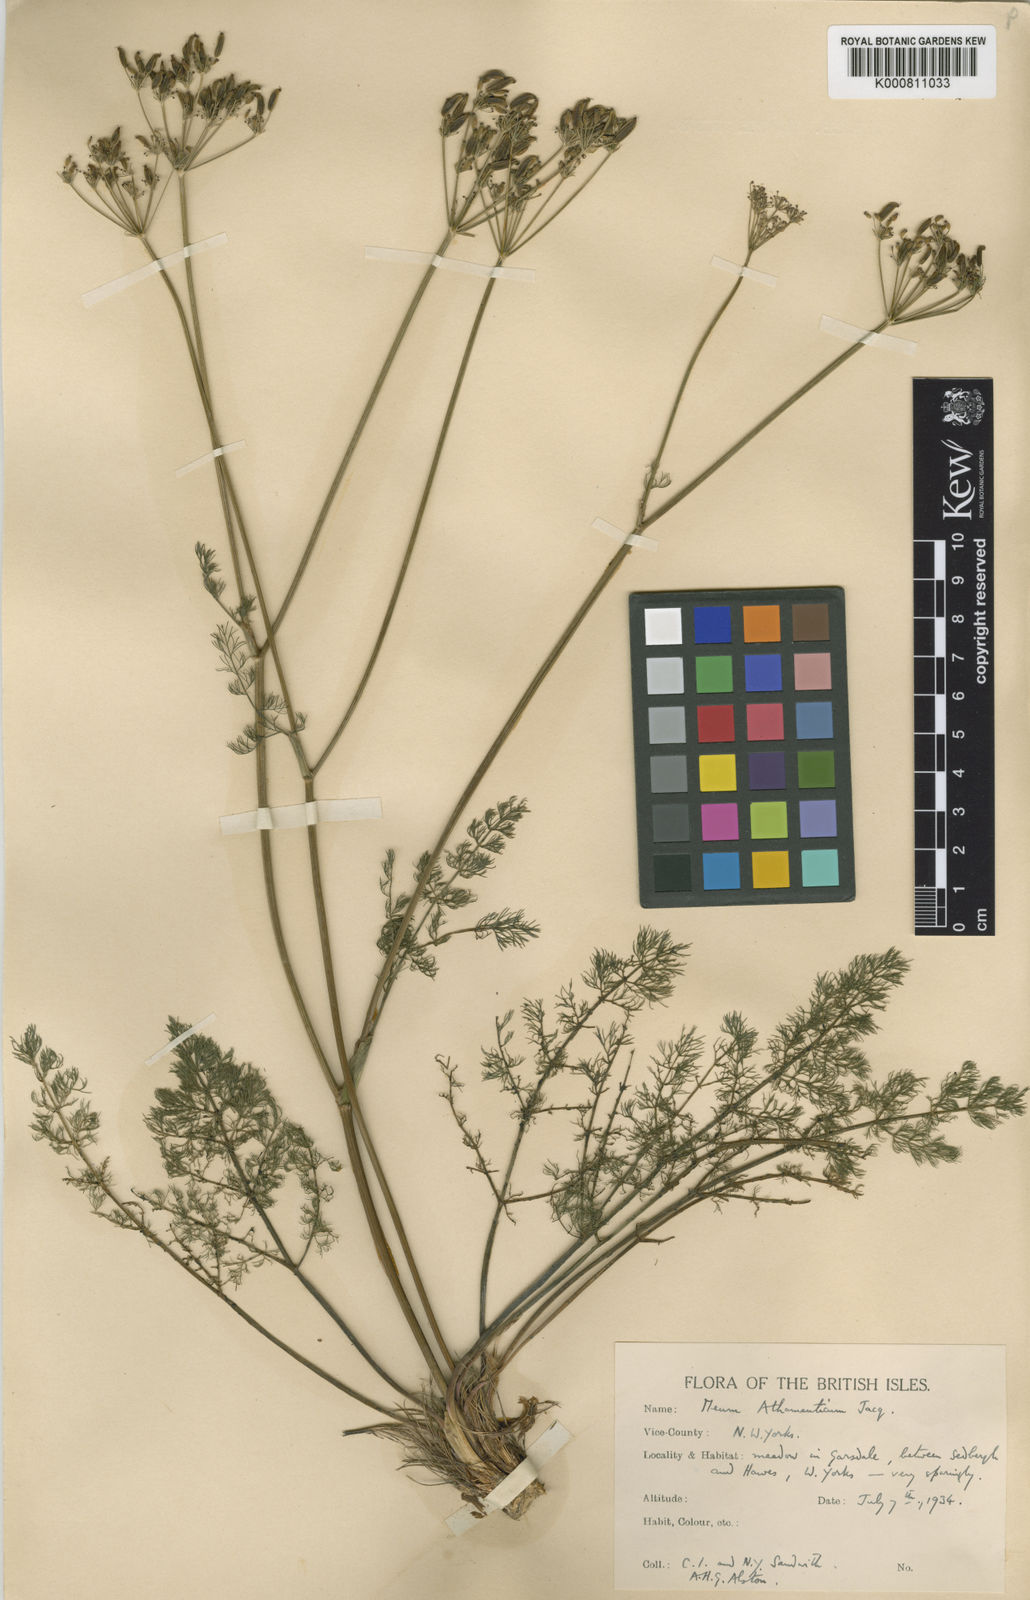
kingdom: Plantae
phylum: Tracheophyta
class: Magnoliopsida
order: Apiales
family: Apiaceae
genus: Meum
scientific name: Meum athamanticum
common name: Spignel
